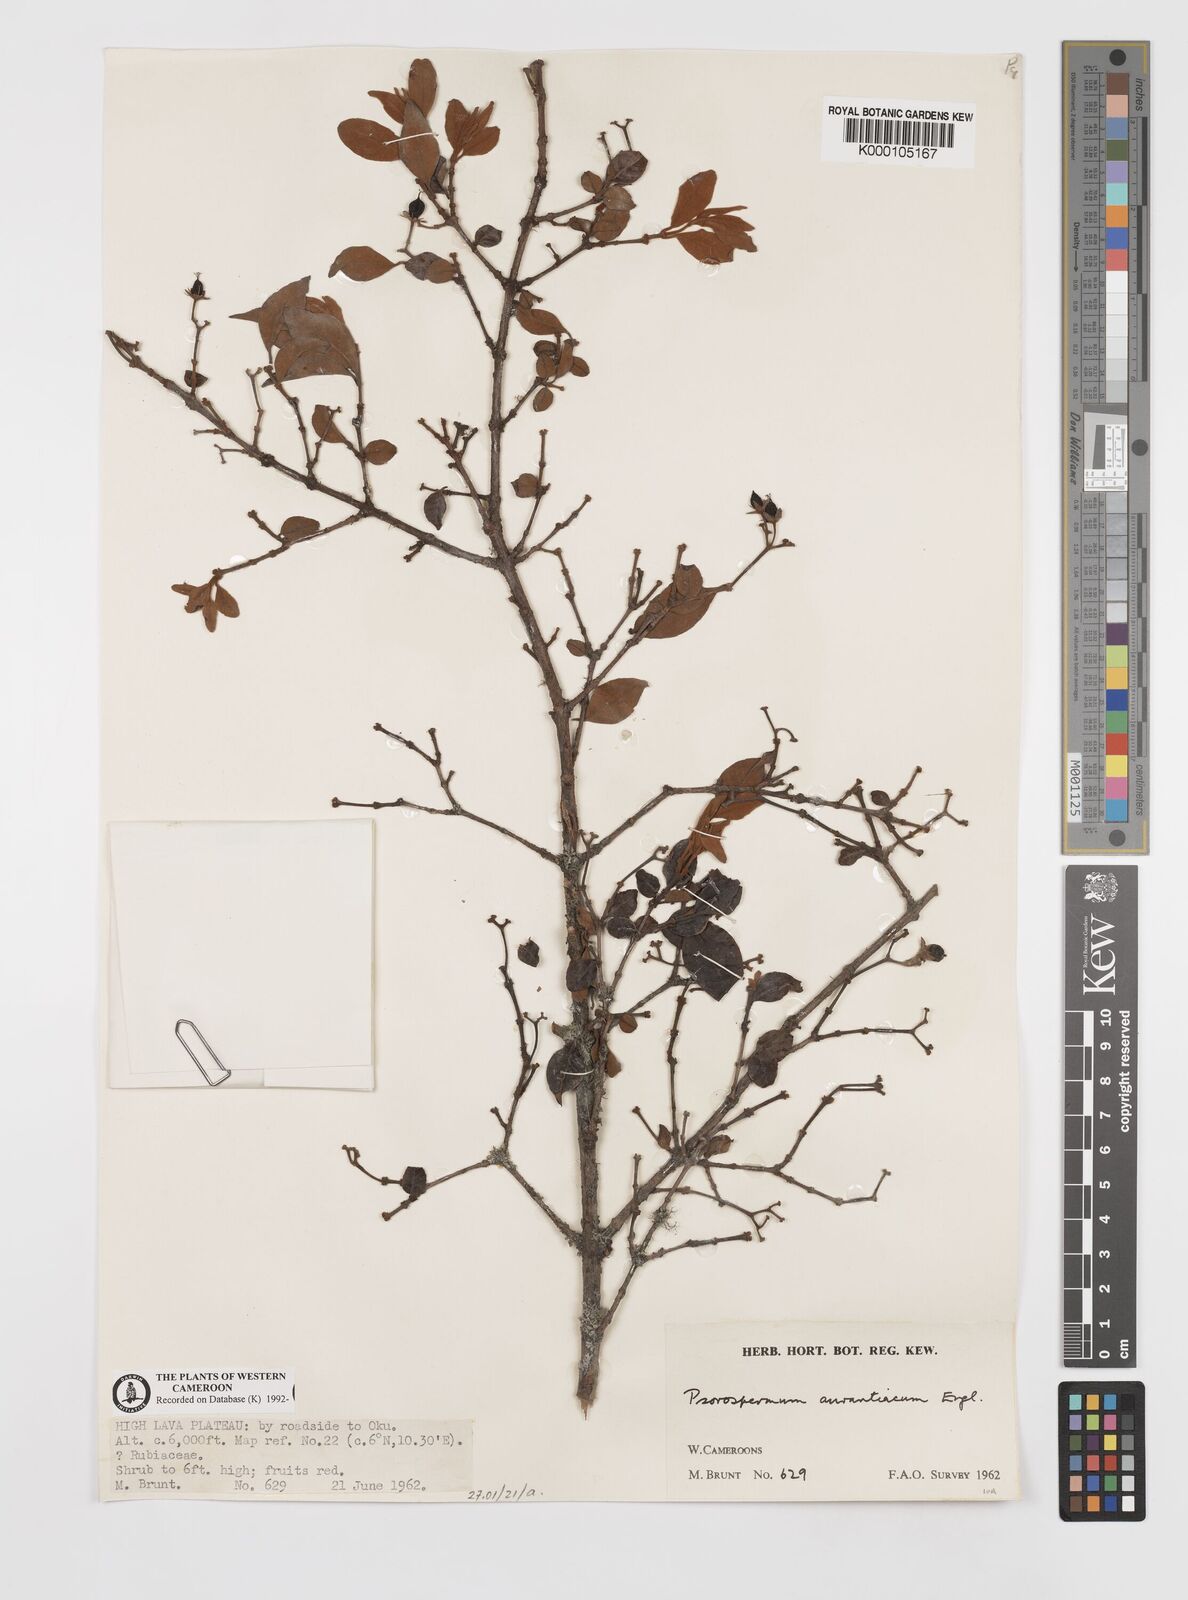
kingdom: Plantae
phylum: Tracheophyta
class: Magnoliopsida
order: Malpighiales
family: Hypericaceae
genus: Psorospermum
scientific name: Psorospermum aurantiacum
